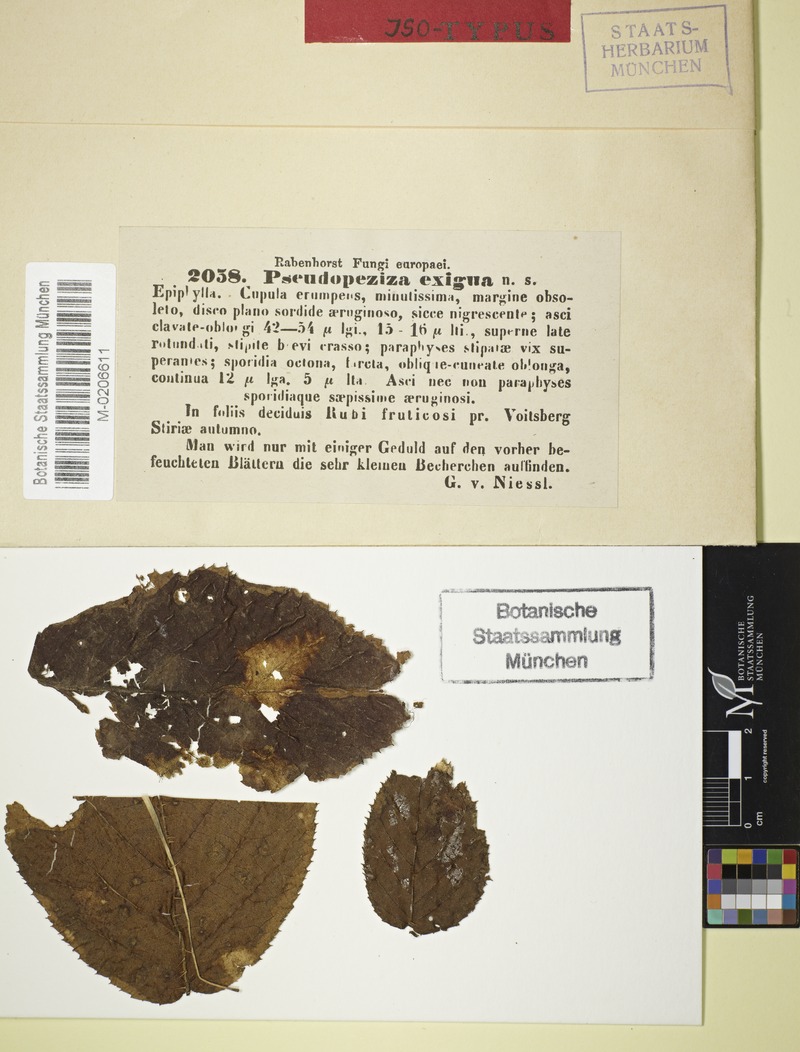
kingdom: Fungi
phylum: Ascomycota
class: Leotiomycetes
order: Helotiales
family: Calloriaceae
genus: Ploettnera
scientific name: Ploettnera exigua
